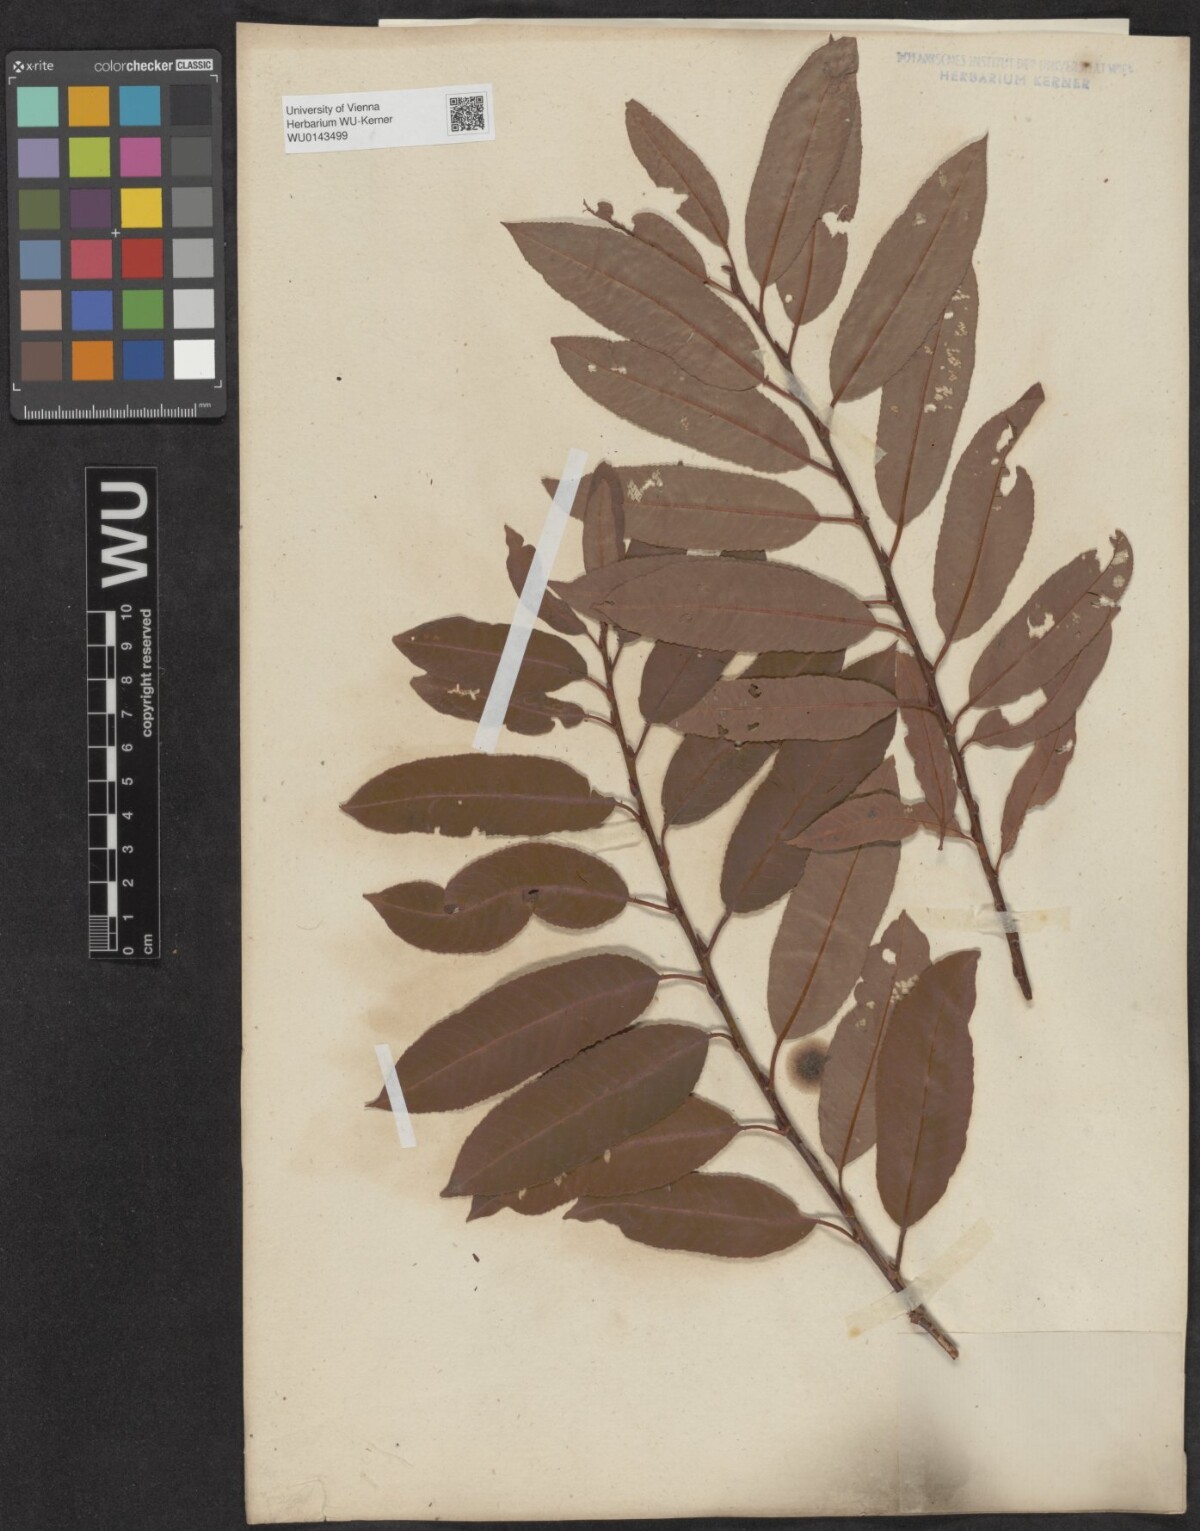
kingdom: Plantae
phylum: Tracheophyta
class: Magnoliopsida
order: Malpighiales
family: Salicaceae
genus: Salix
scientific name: Salix triandra
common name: Almond willow
